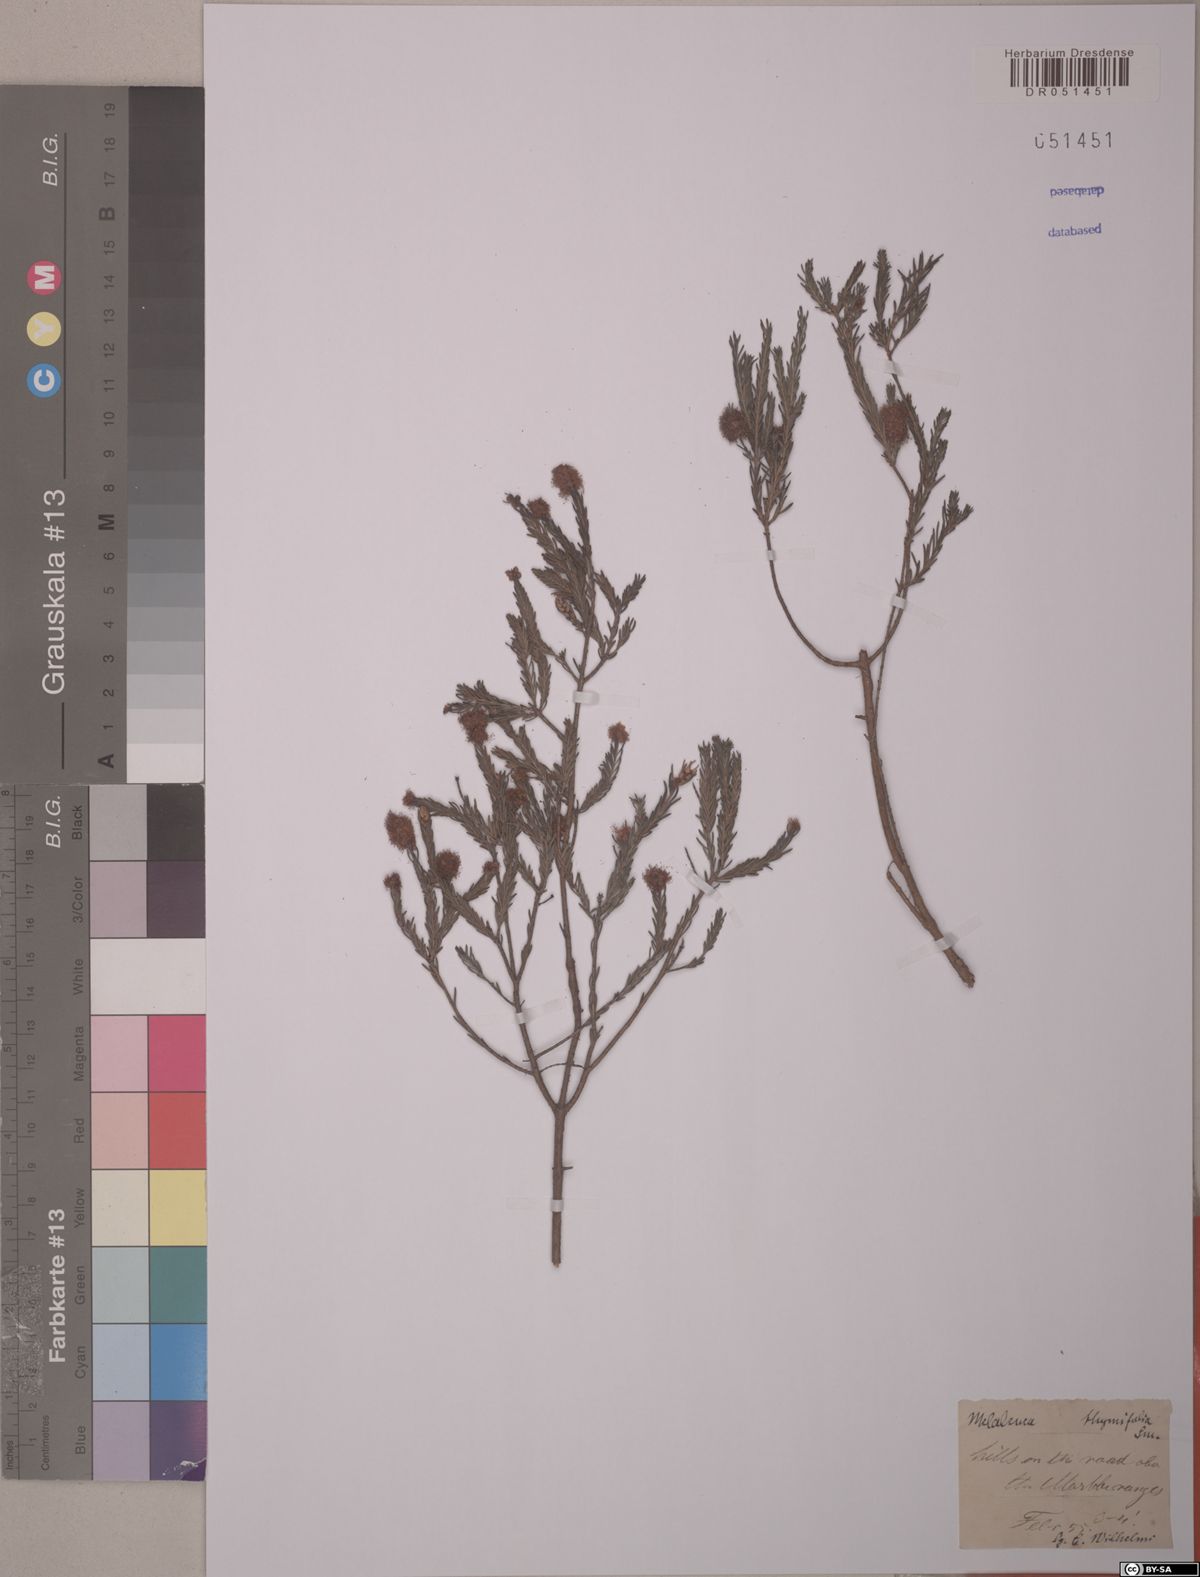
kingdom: Plantae
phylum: Tracheophyta
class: Magnoliopsida
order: Myrtales
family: Myrtaceae
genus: Melaleuca
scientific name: Melaleuca thymifolia
